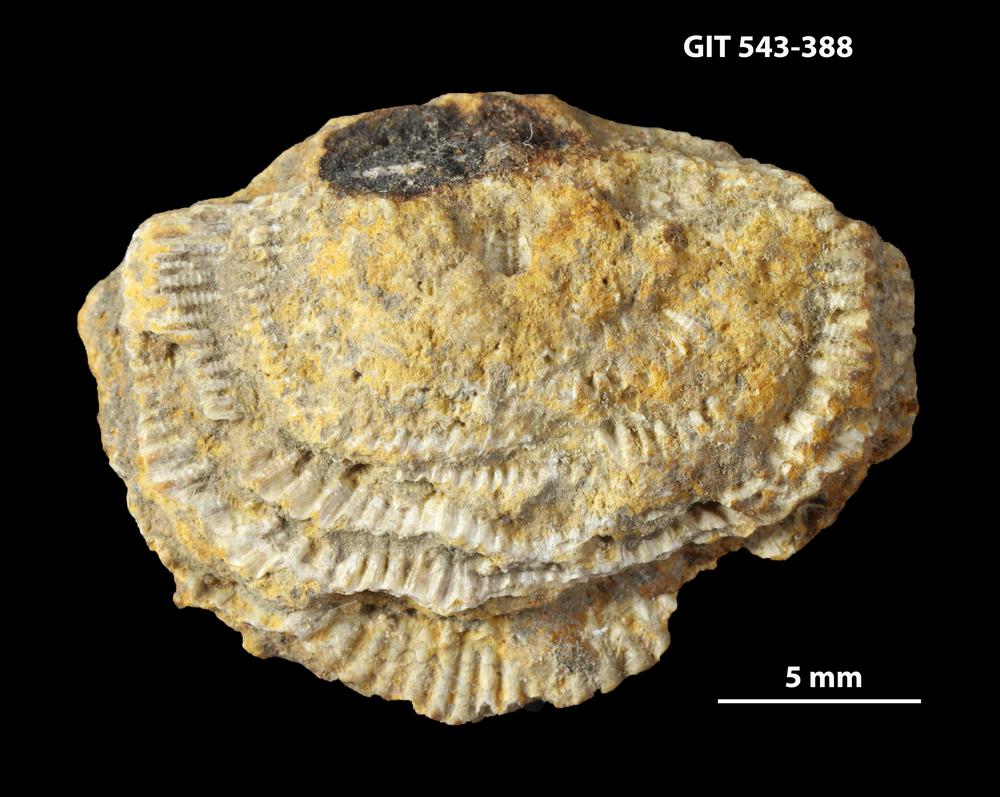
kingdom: Animalia
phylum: Brachiopoda
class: Rhynchonellata
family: Clitambonitidae
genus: Clitambonites
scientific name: Clitambonites Orthisina schmidti
